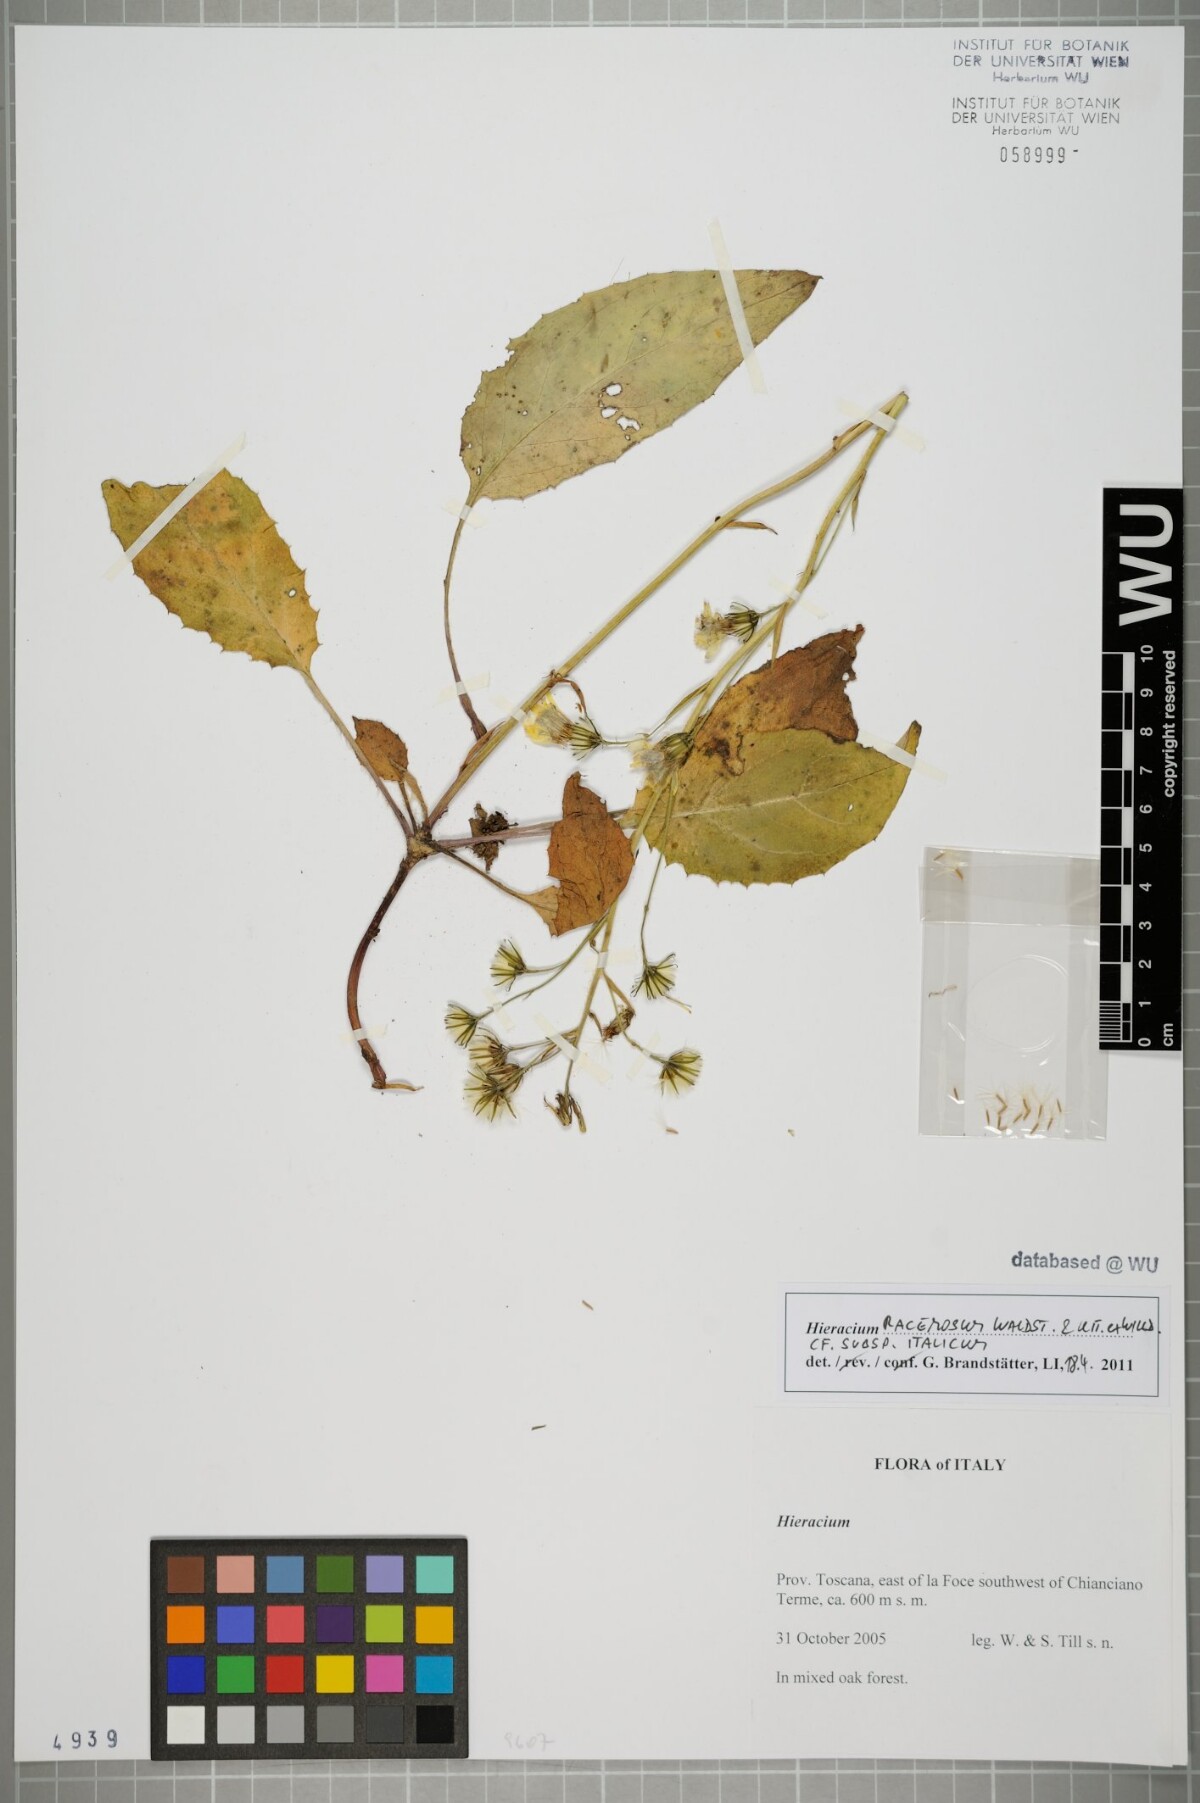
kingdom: Plantae
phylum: Tracheophyta
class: Magnoliopsida
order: Asterales
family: Asteraceae
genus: Hieracium
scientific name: Hieracium racemosum
